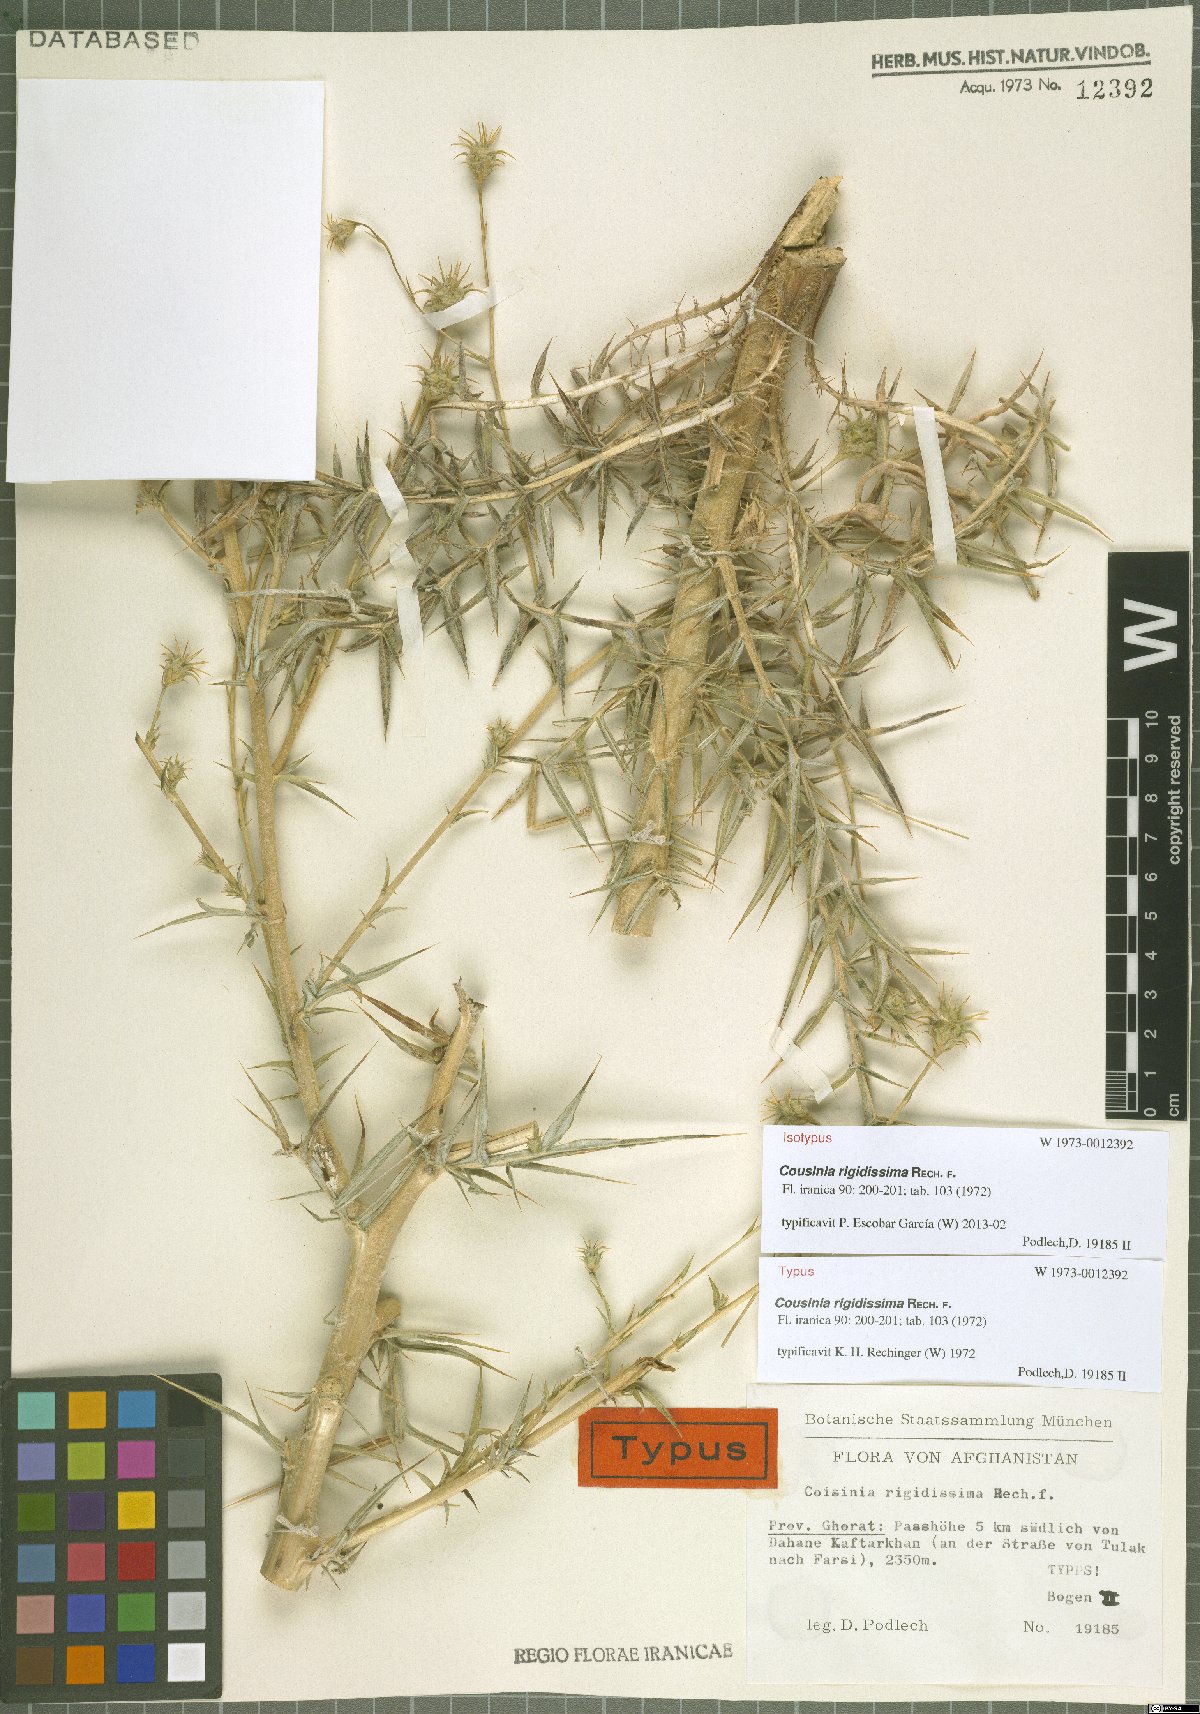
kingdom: Plantae
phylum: Tracheophyta
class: Magnoliopsida
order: Asterales
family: Asteraceae
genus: Cousinia
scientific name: Cousinia rigidissima
